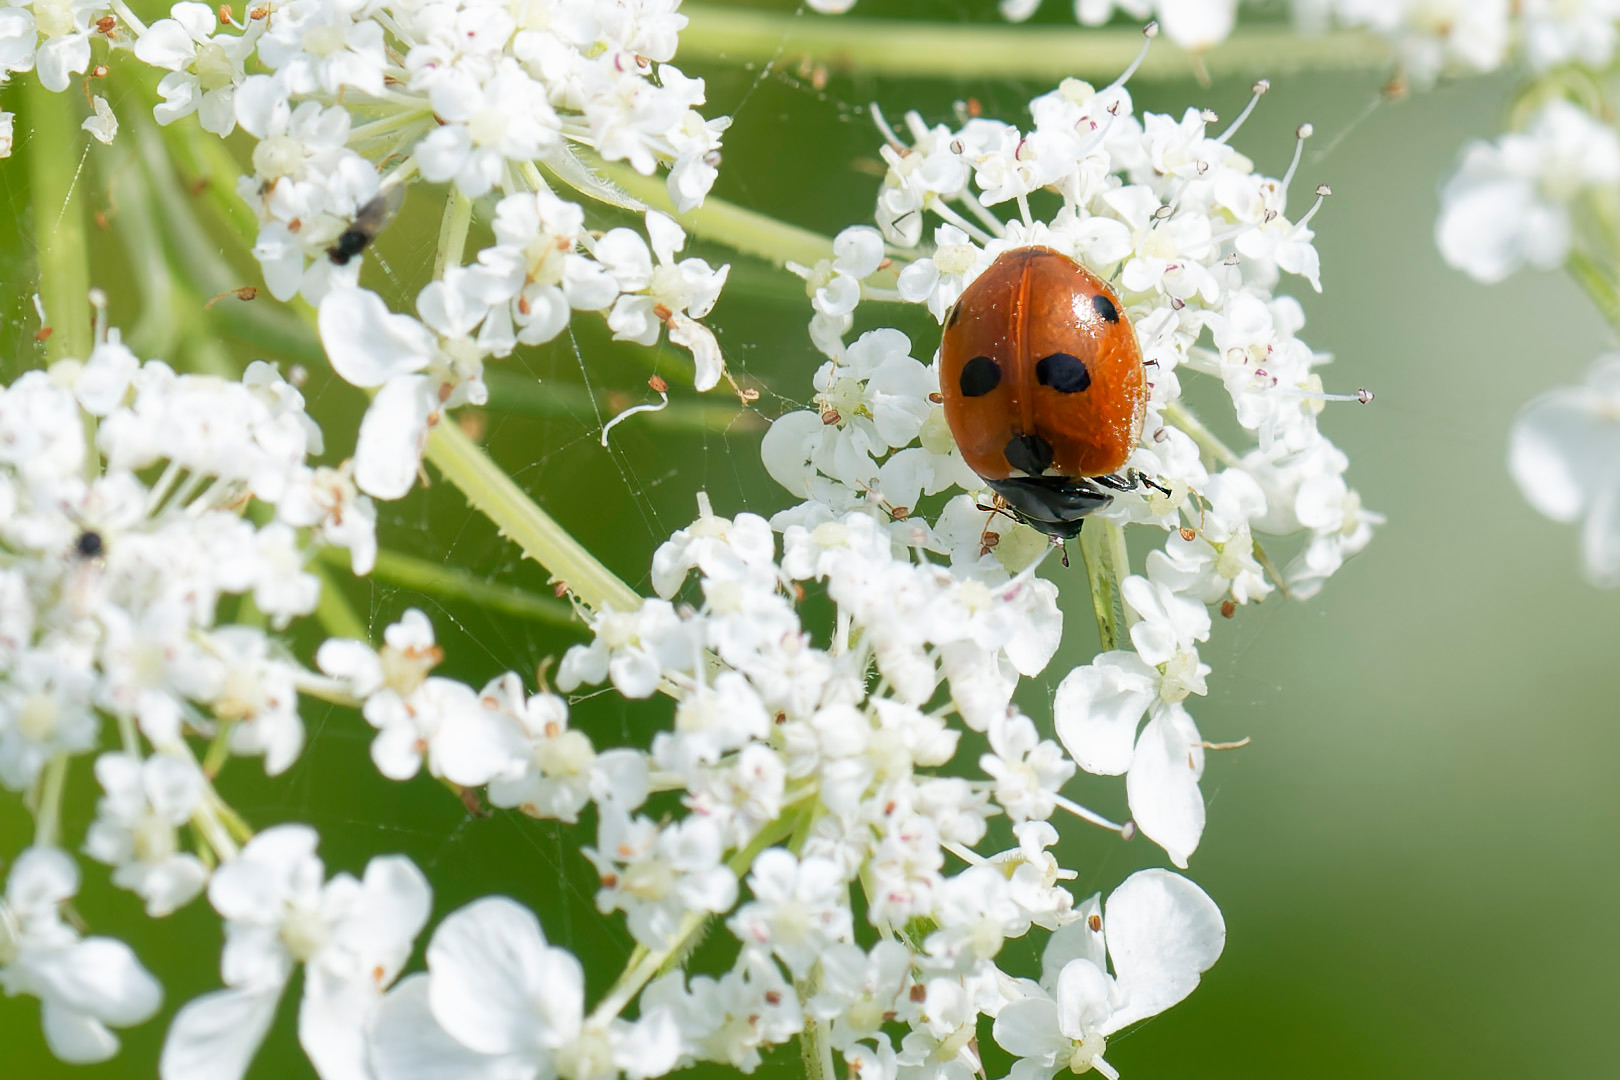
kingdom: Animalia
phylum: Arthropoda
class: Insecta
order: Coleoptera
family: Coccinellidae
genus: Coccinella
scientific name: Coccinella quinquepunctata
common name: Femplettet mariehøne
